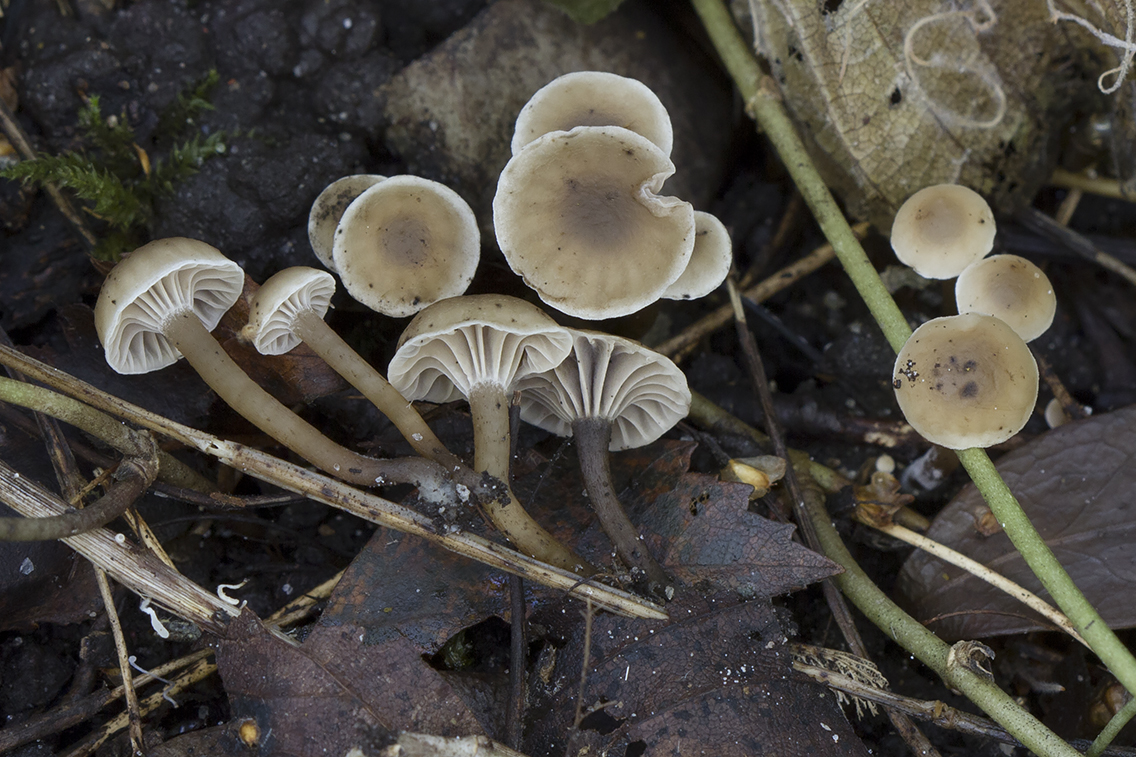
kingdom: Fungi
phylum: Basidiomycota
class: Agaricomycetes
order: Agaricales
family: Clavariaceae
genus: Hodophilus
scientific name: Hodophilus foetens
